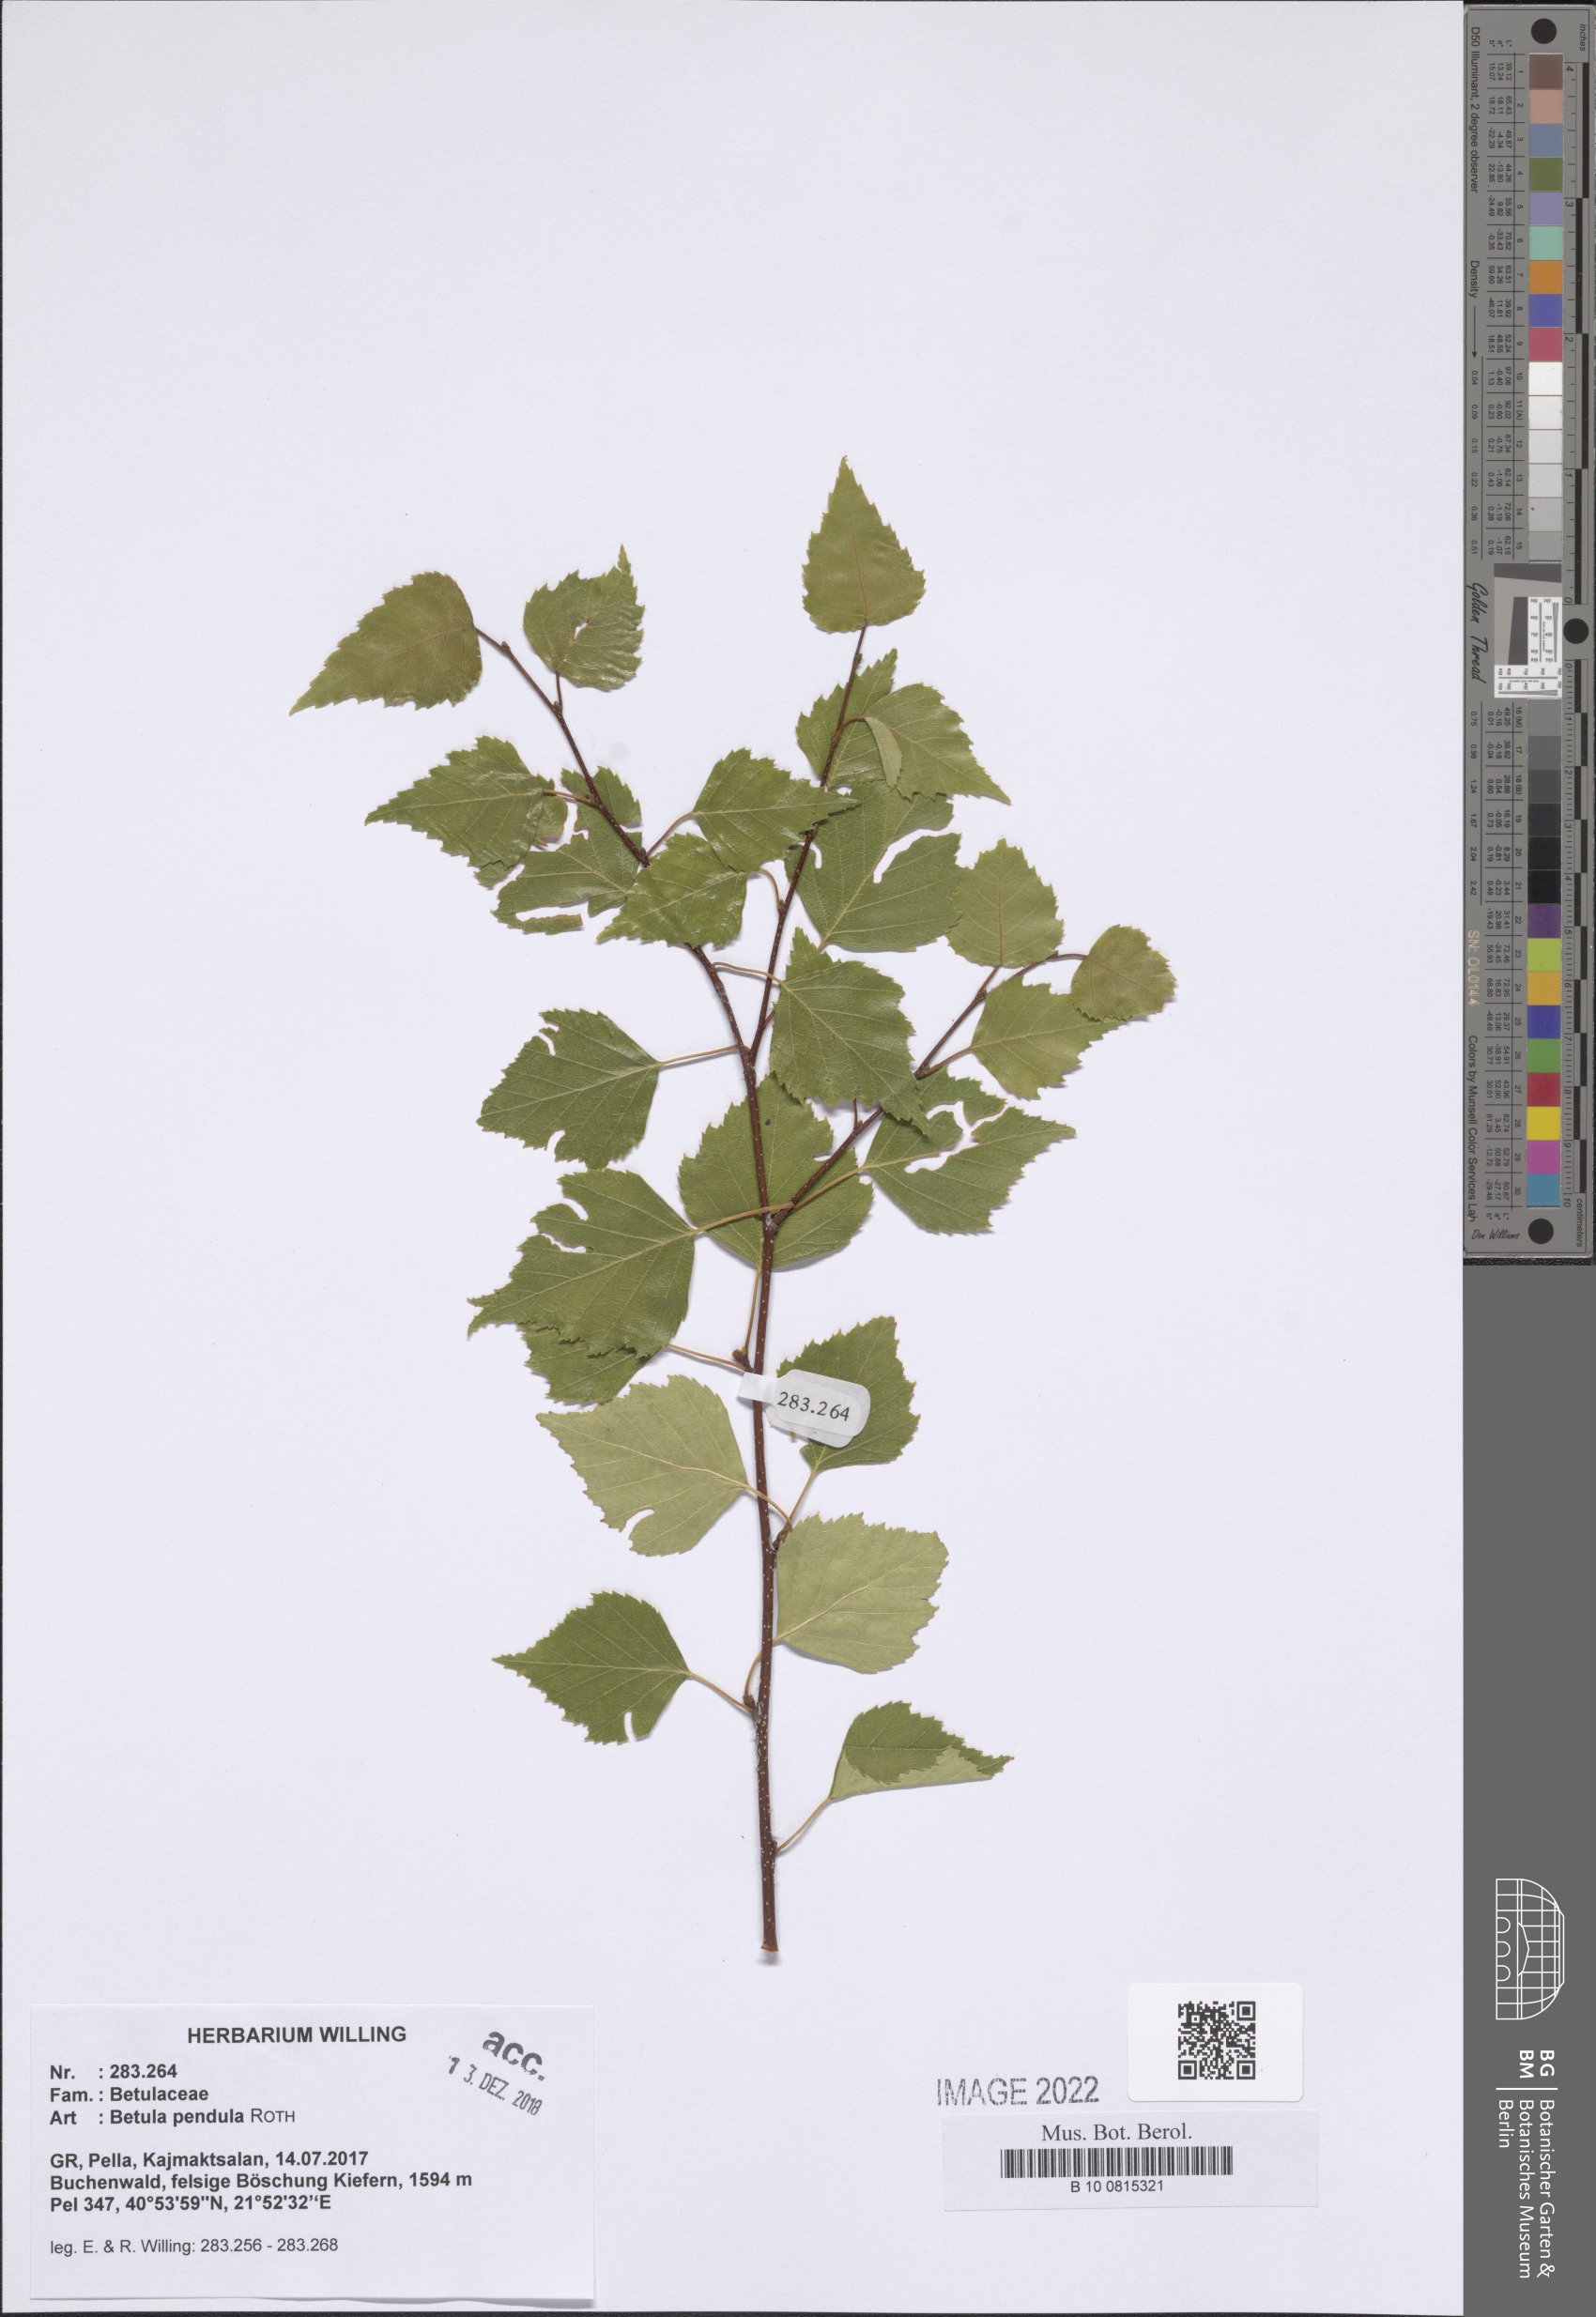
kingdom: Plantae
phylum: Tracheophyta
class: Magnoliopsida
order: Fagales
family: Betulaceae
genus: Betula
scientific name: Betula pendula
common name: Silver birch
